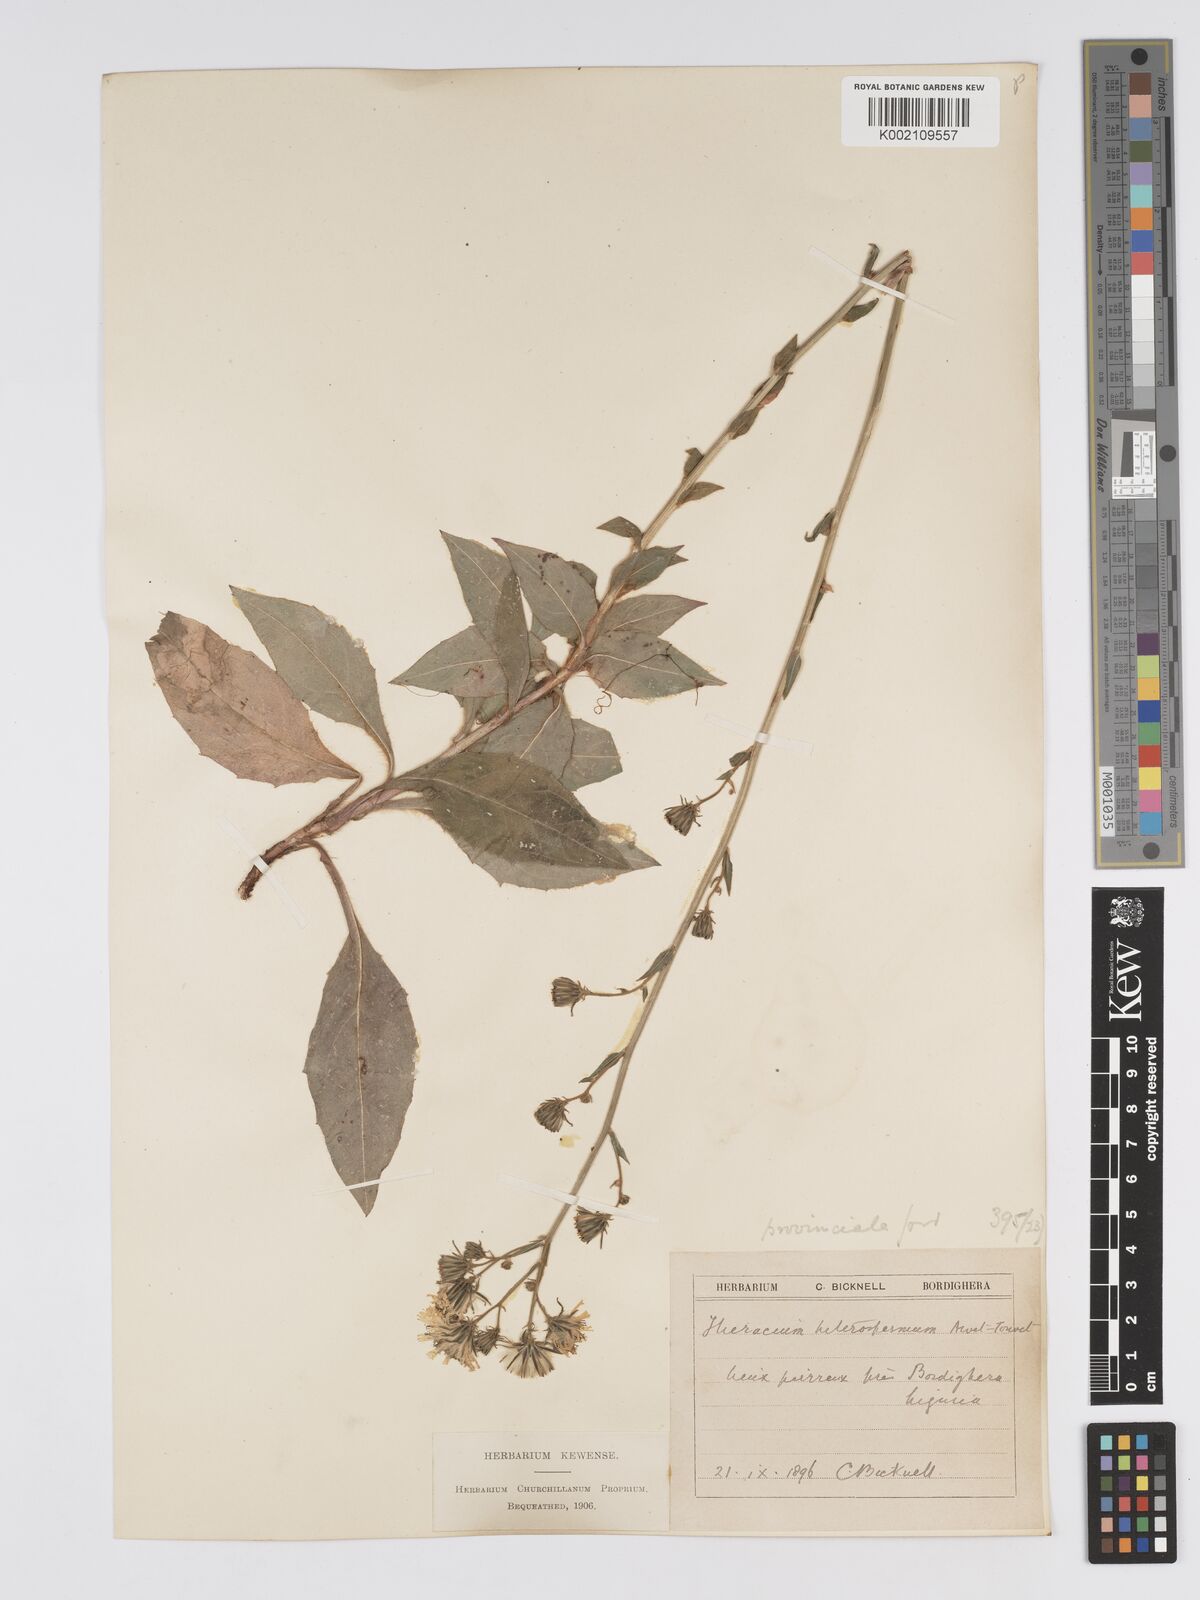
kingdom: Plantae
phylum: Tracheophyta
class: Magnoliopsida
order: Asterales
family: Asteraceae
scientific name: Asteraceae
